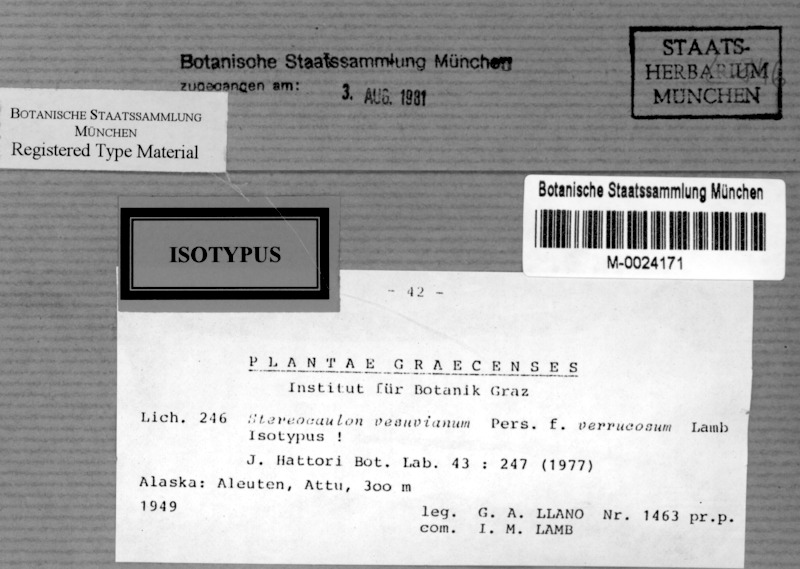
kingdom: Fungi
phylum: Ascomycota
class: Lecanoromycetes
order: Lecanorales
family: Stereocaulaceae
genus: Stereocaulon
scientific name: Stereocaulon vesuvianum
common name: Variegated foam lichen
